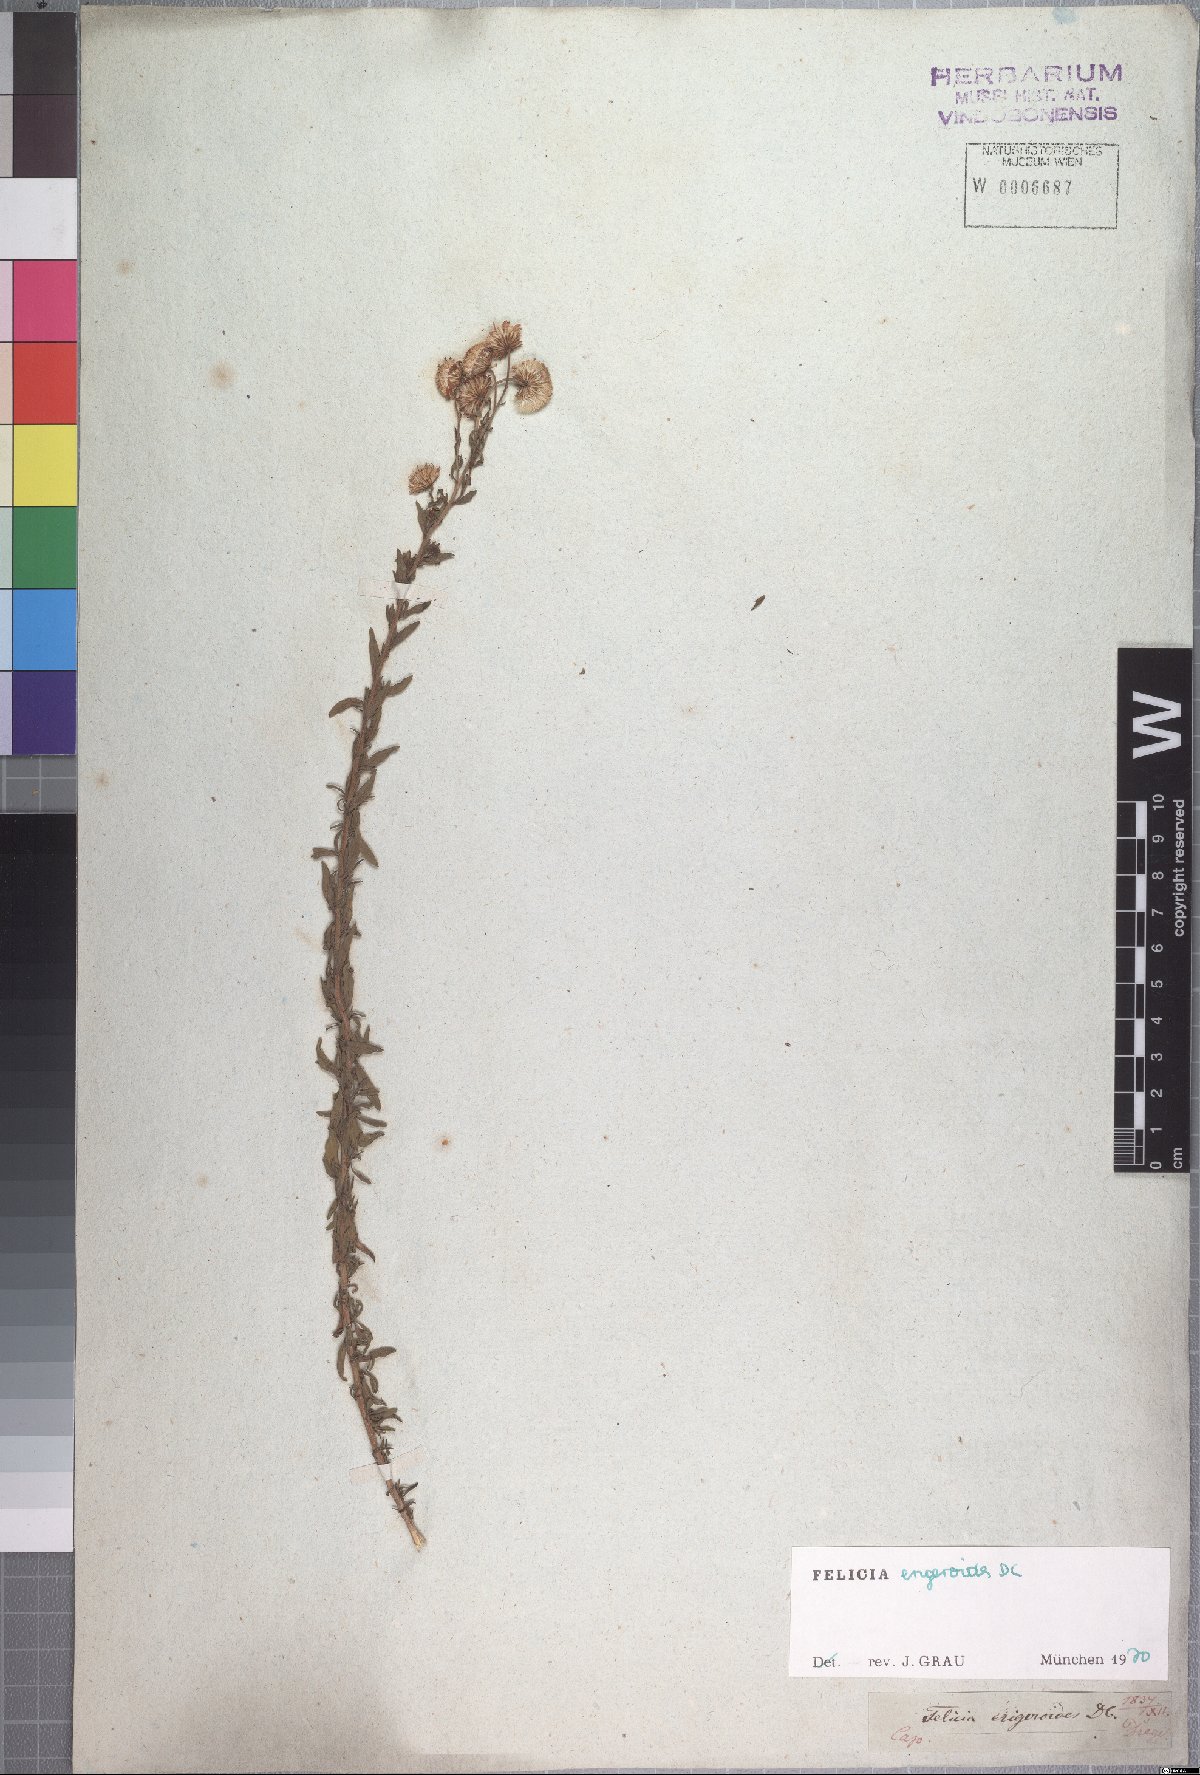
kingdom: Plantae
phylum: Tracheophyta
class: Magnoliopsida
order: Asterales
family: Asteraceae
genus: Felicia
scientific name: Felicia erigeroides
